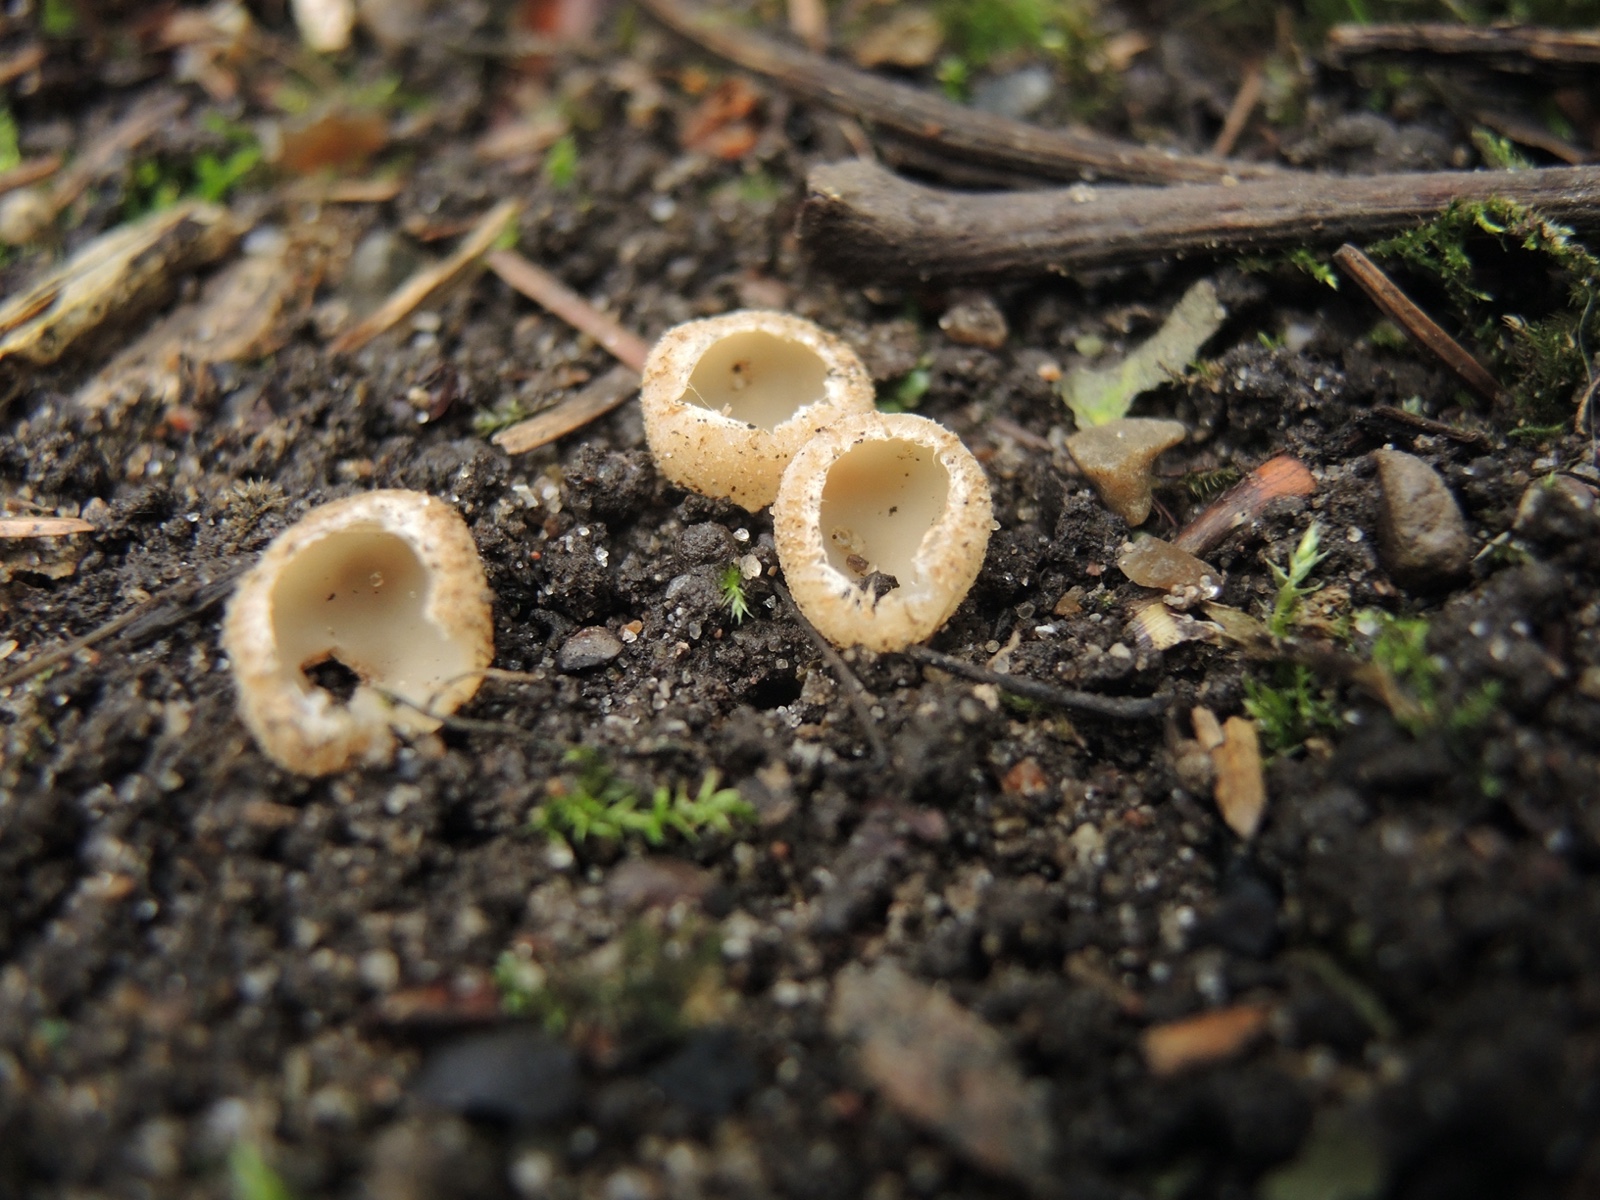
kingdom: Fungi
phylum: Ascomycota
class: Pezizomycetes
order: Pezizales
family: Pyronemataceae
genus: Tarzetta
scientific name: Tarzetta cupularis
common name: gulbrun pokalbæger
